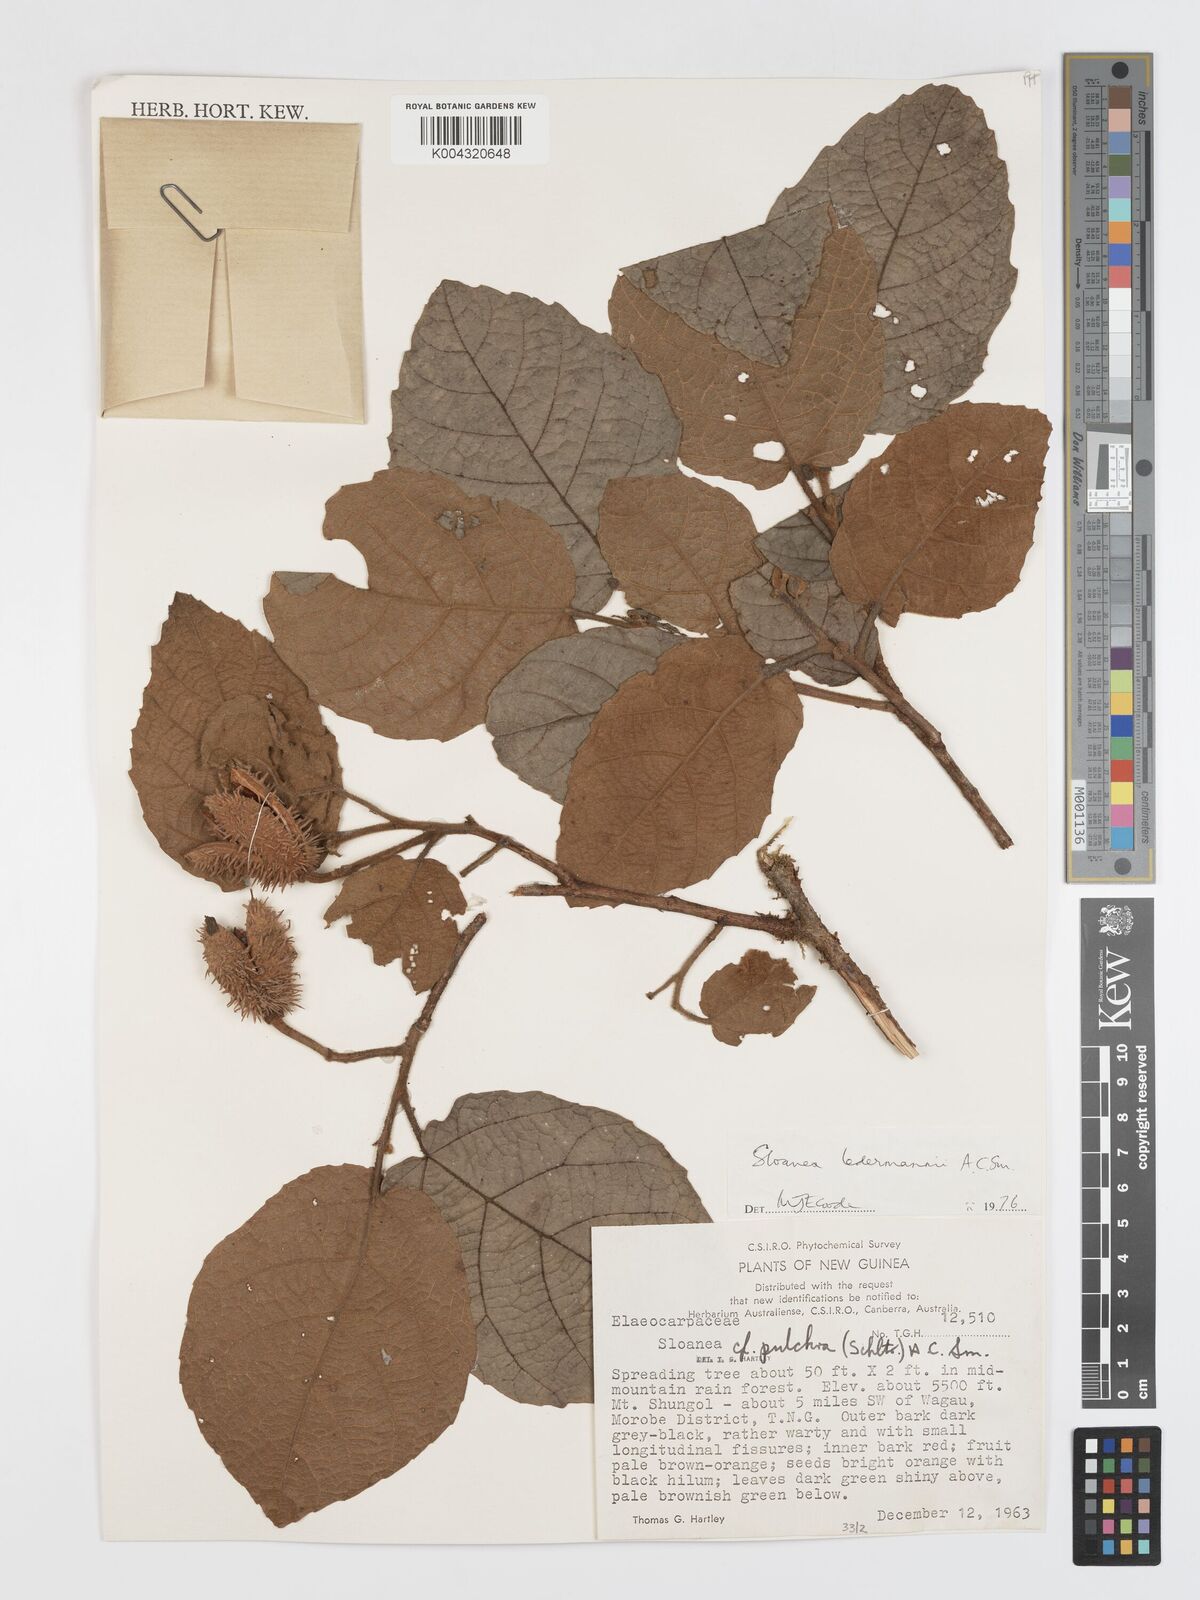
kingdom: Plantae
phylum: Tracheophyta
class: Magnoliopsida
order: Oxalidales
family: Elaeocarpaceae
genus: Sloanea
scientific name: Sloanea ledermannii
